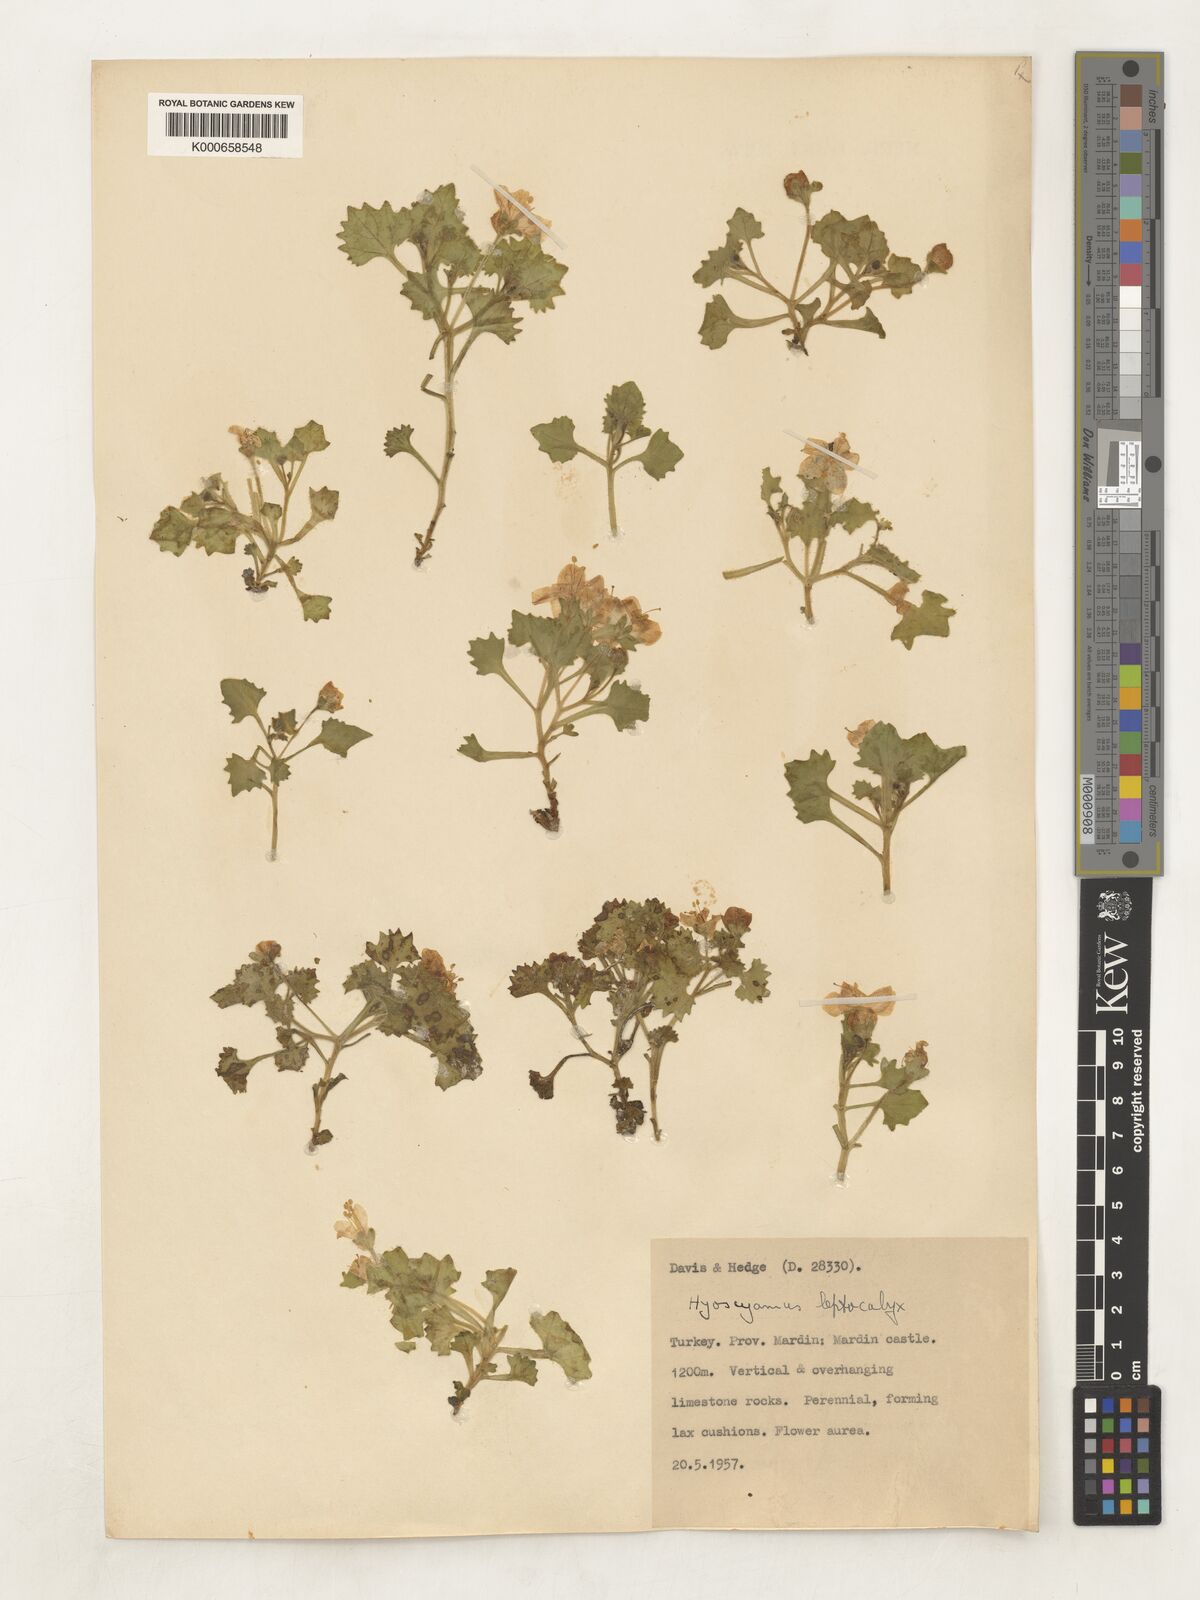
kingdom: Plantae
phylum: Tracheophyta
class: Magnoliopsida
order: Solanales
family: Solanaceae
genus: Hyoscyamus
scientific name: Hyoscyamus leptocalyx
